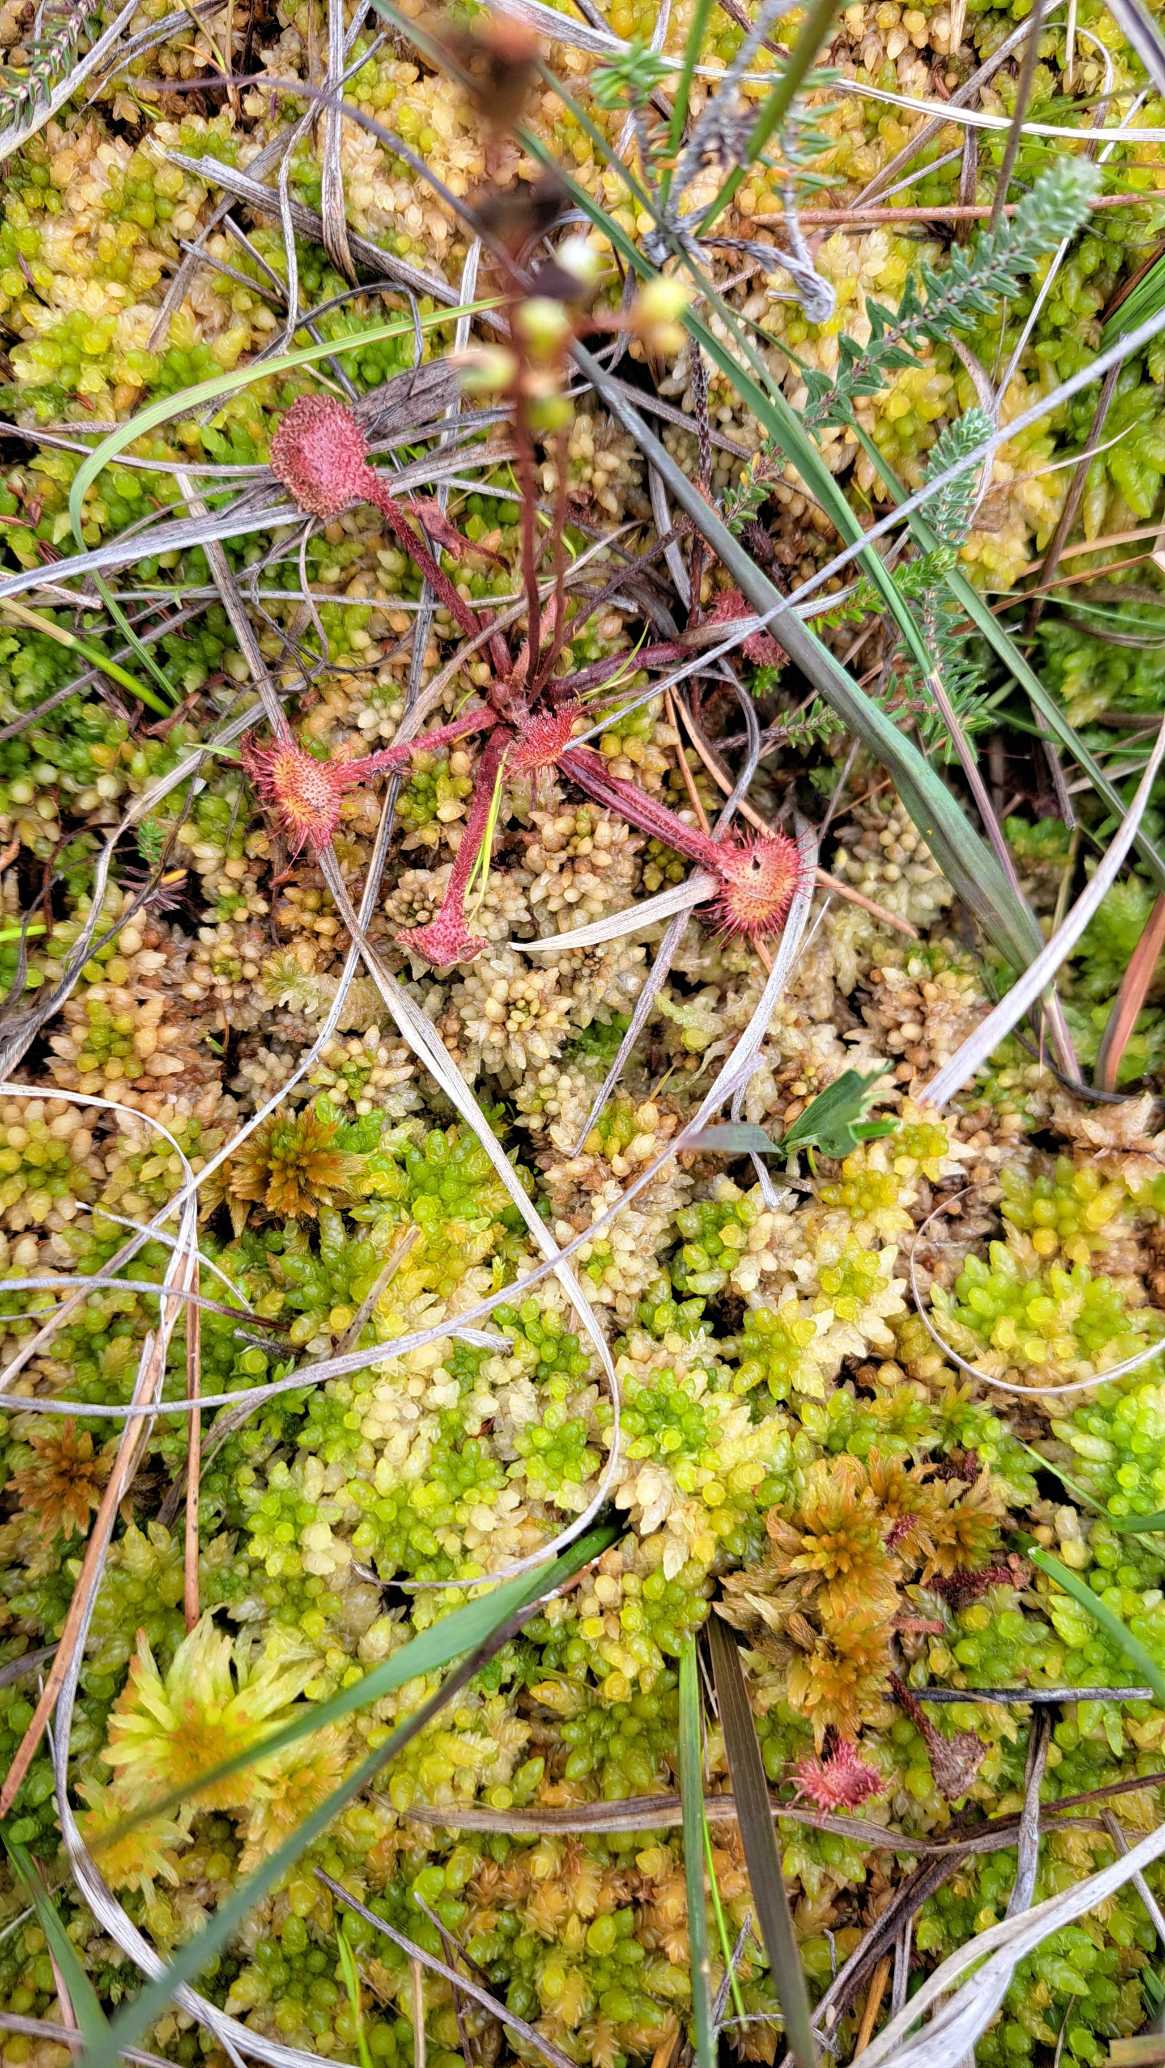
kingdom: Plantae
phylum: Tracheophyta
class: Magnoliopsida
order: Caryophyllales
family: Droseraceae
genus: Drosera
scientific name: Drosera rotundifolia
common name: Rundbladet soldug
